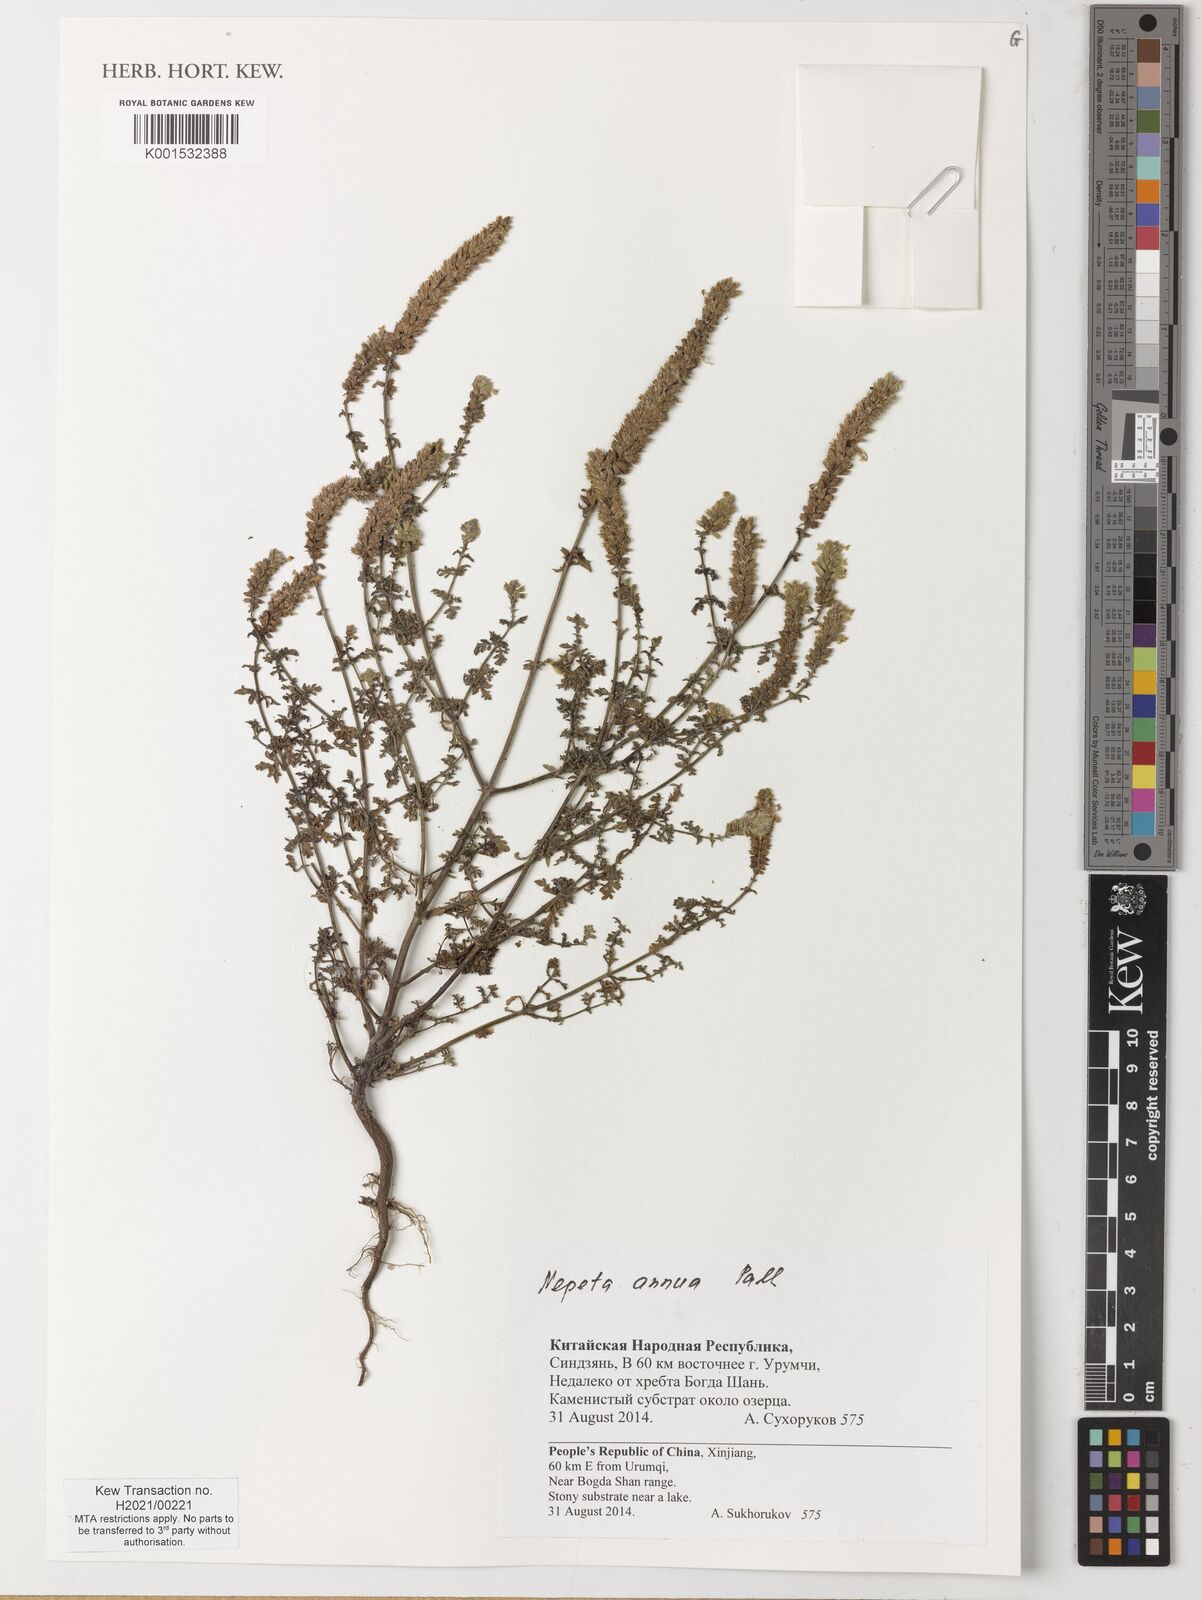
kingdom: Plantae
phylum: Tracheophyta
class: Magnoliopsida
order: Lamiales
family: Lamiaceae
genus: Nepeta
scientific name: Nepeta annua
